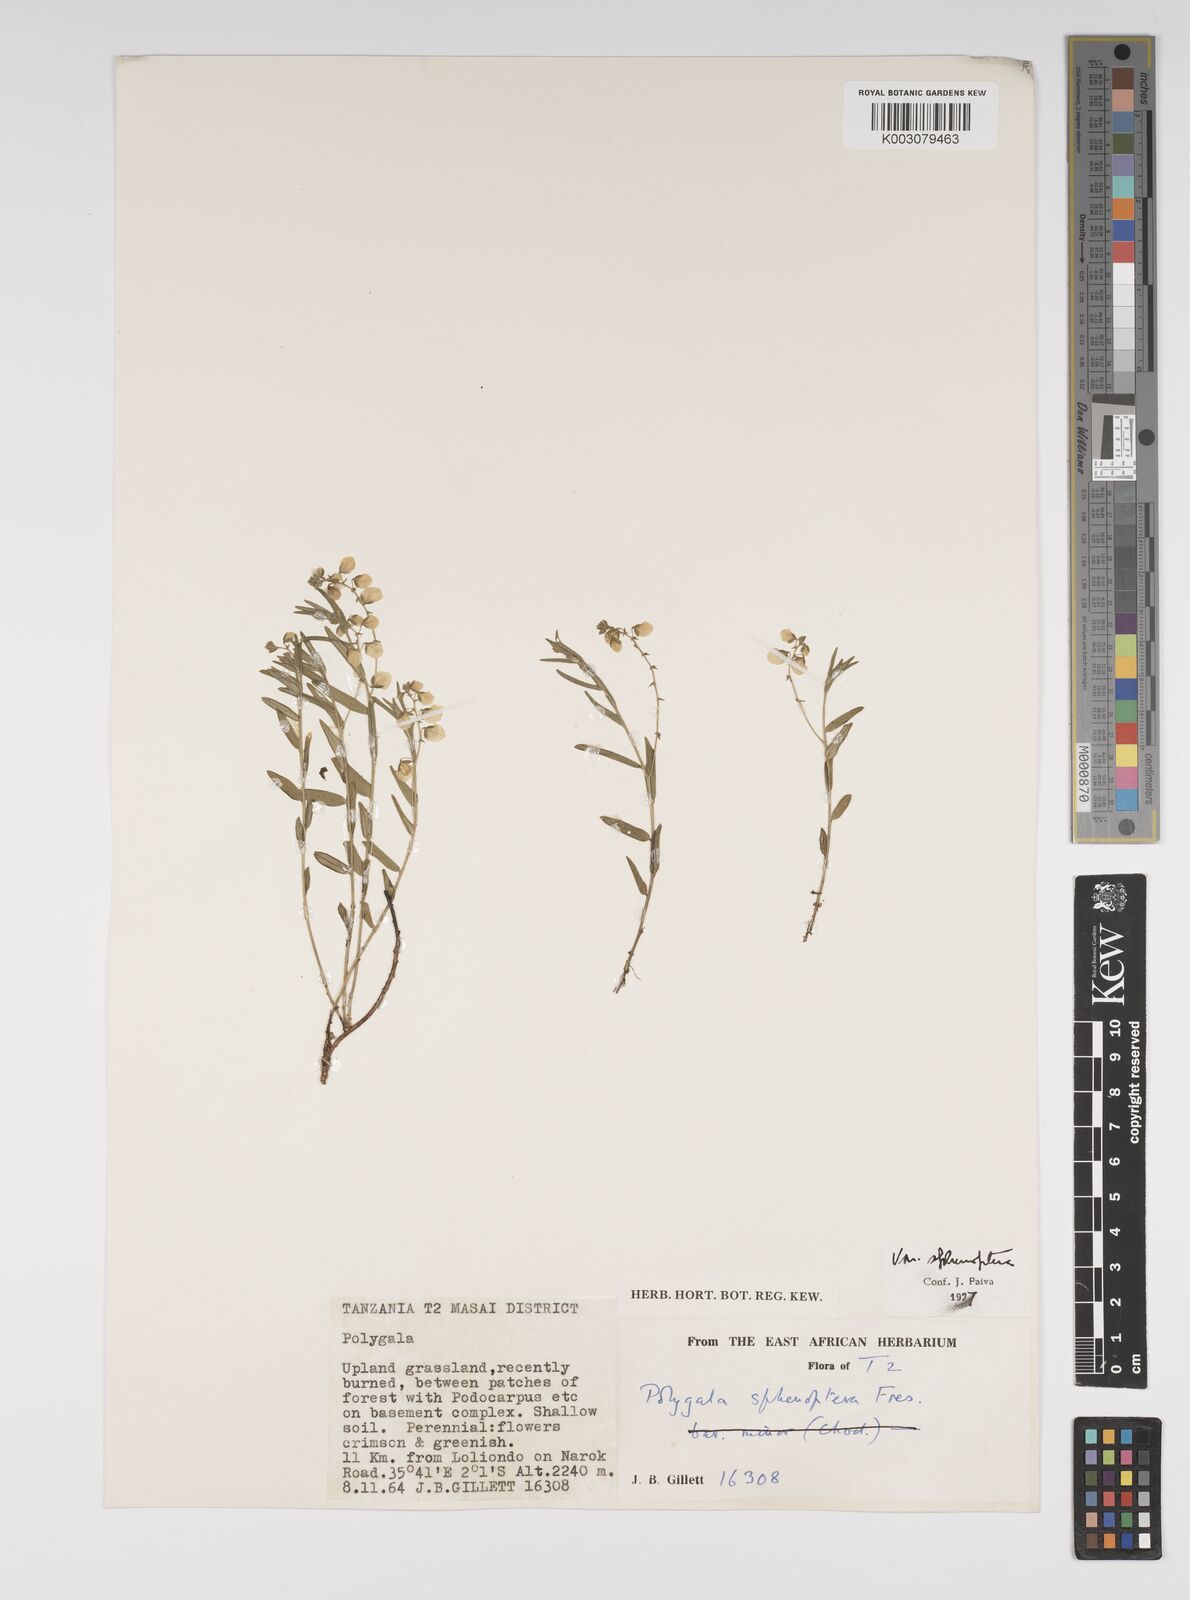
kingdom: Plantae
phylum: Tracheophyta
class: Magnoliopsida
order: Fabales
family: Polygalaceae
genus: Polygala
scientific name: Polygala sphenoptera
